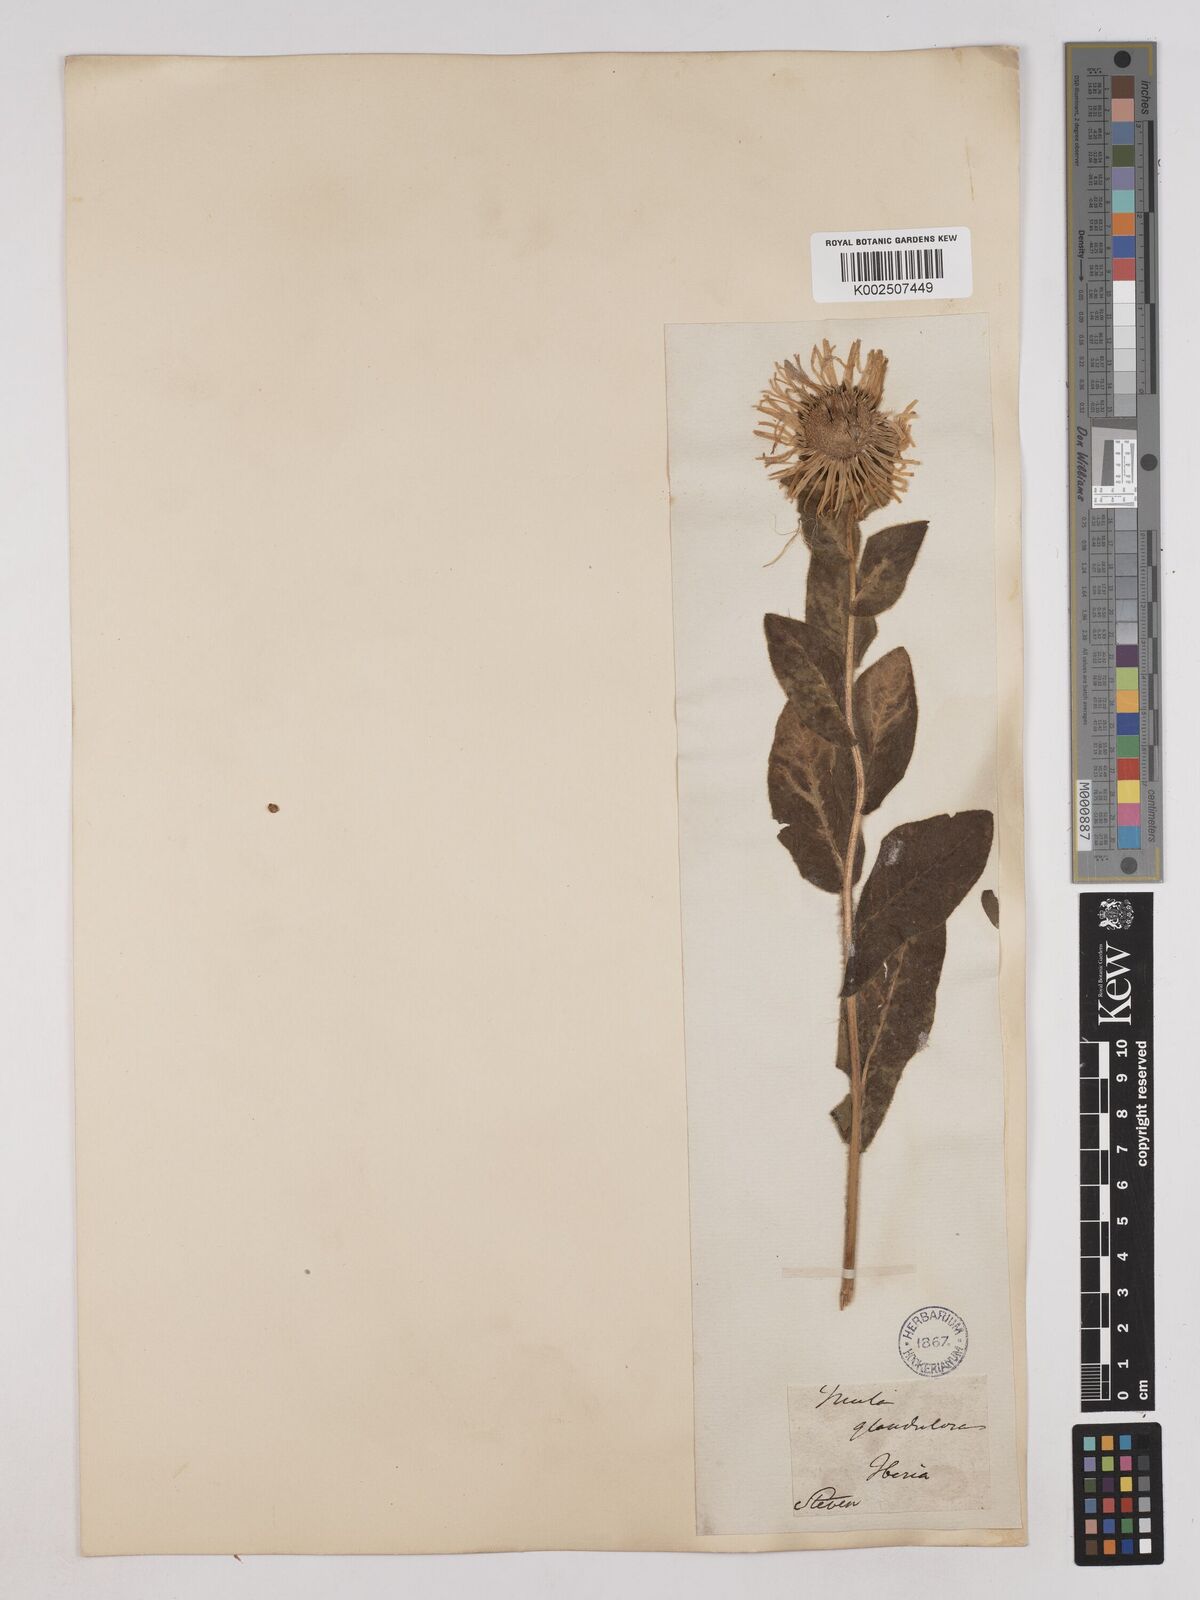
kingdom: Plantae
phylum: Tracheophyta
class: Magnoliopsida
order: Asterales
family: Asteraceae
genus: Pentanema
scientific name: Pentanema orientale
